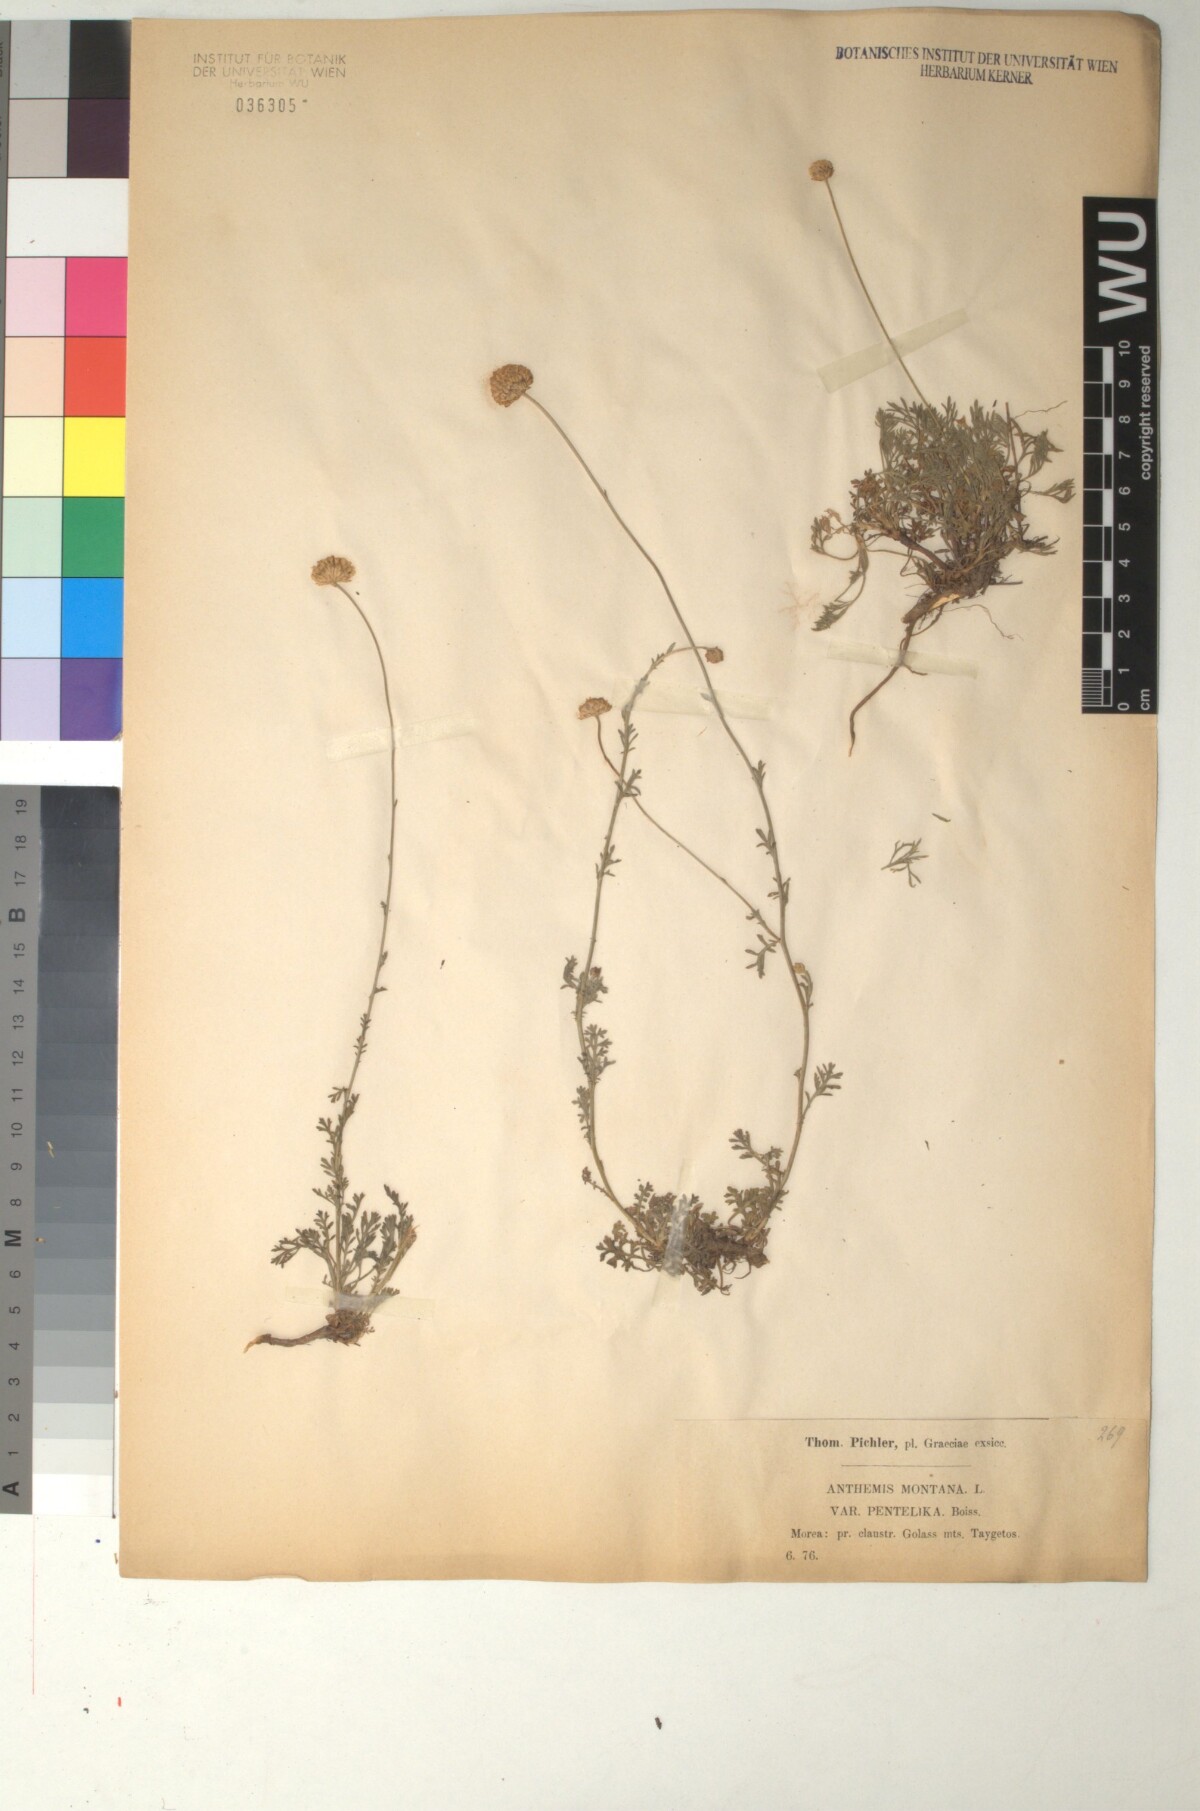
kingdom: Plantae
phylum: Tracheophyta
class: Magnoliopsida
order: Asterales
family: Asteraceae
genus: Anthemis
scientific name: Anthemis cretica
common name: Mountain dog-daisy
